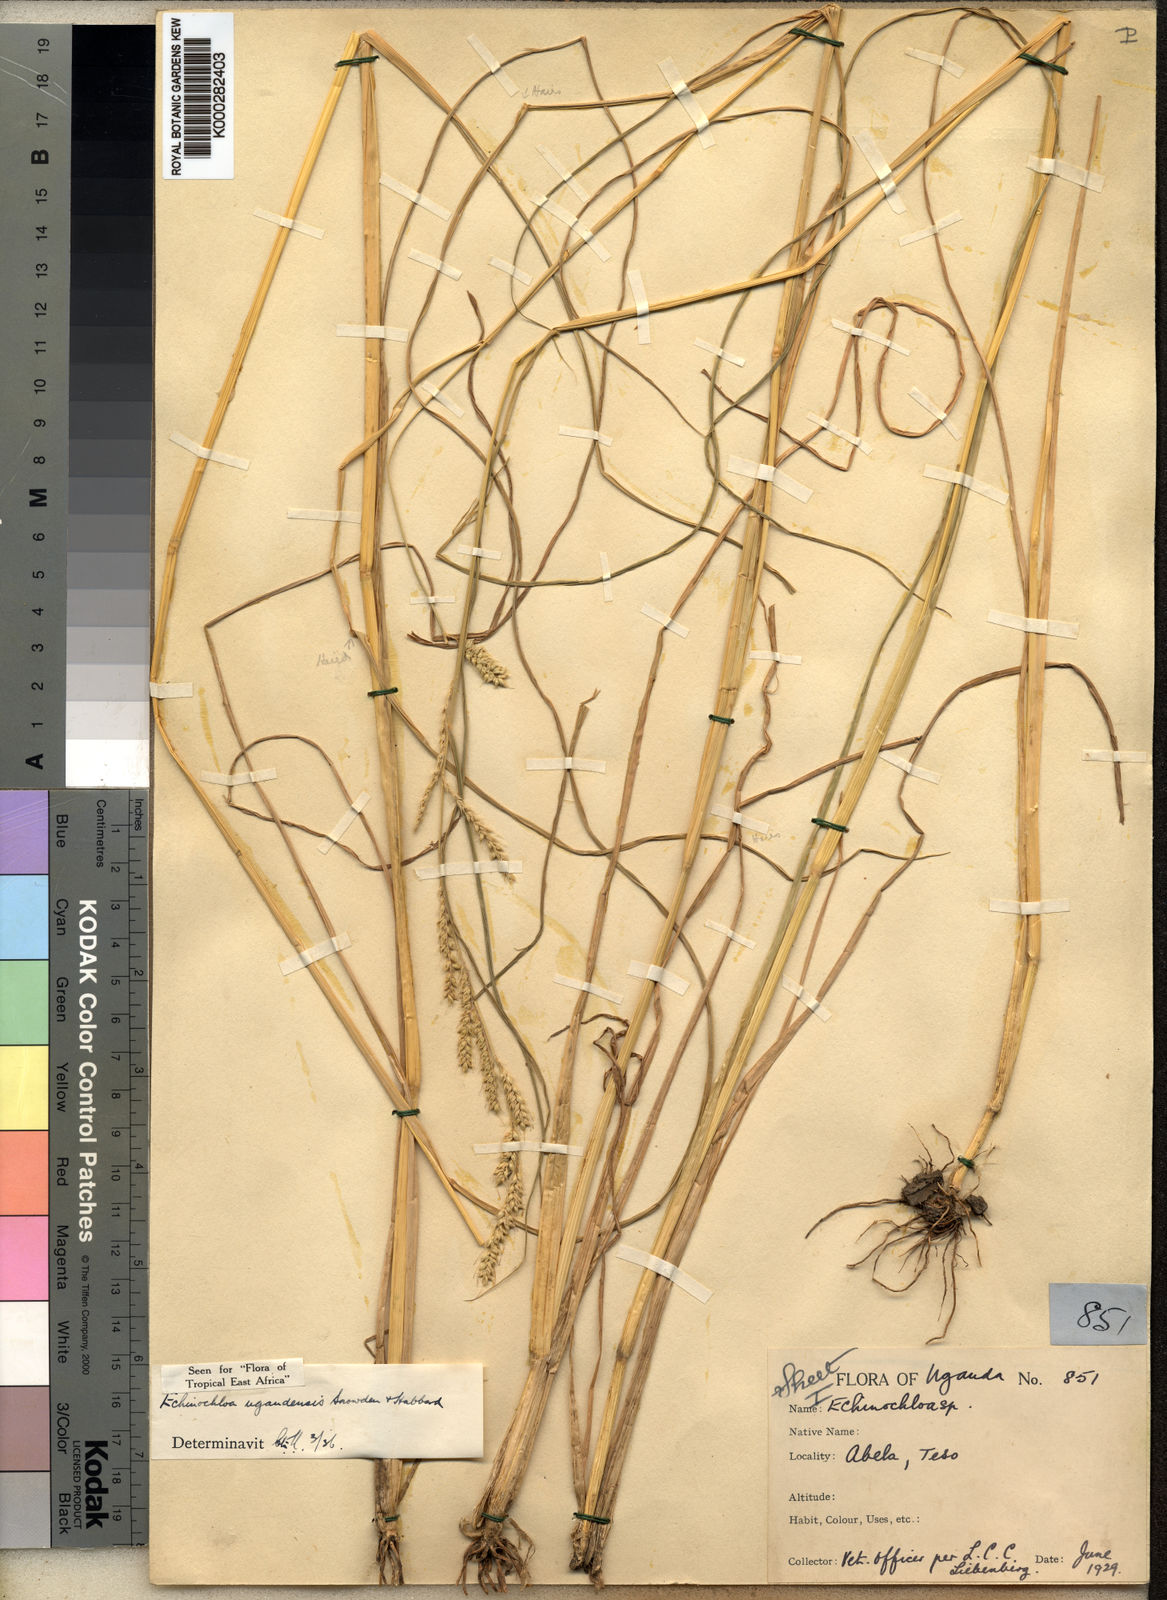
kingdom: Plantae
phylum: Tracheophyta
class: Liliopsida
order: Poales
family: Poaceae
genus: Echinochloa
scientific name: Echinochloa ugandensis
